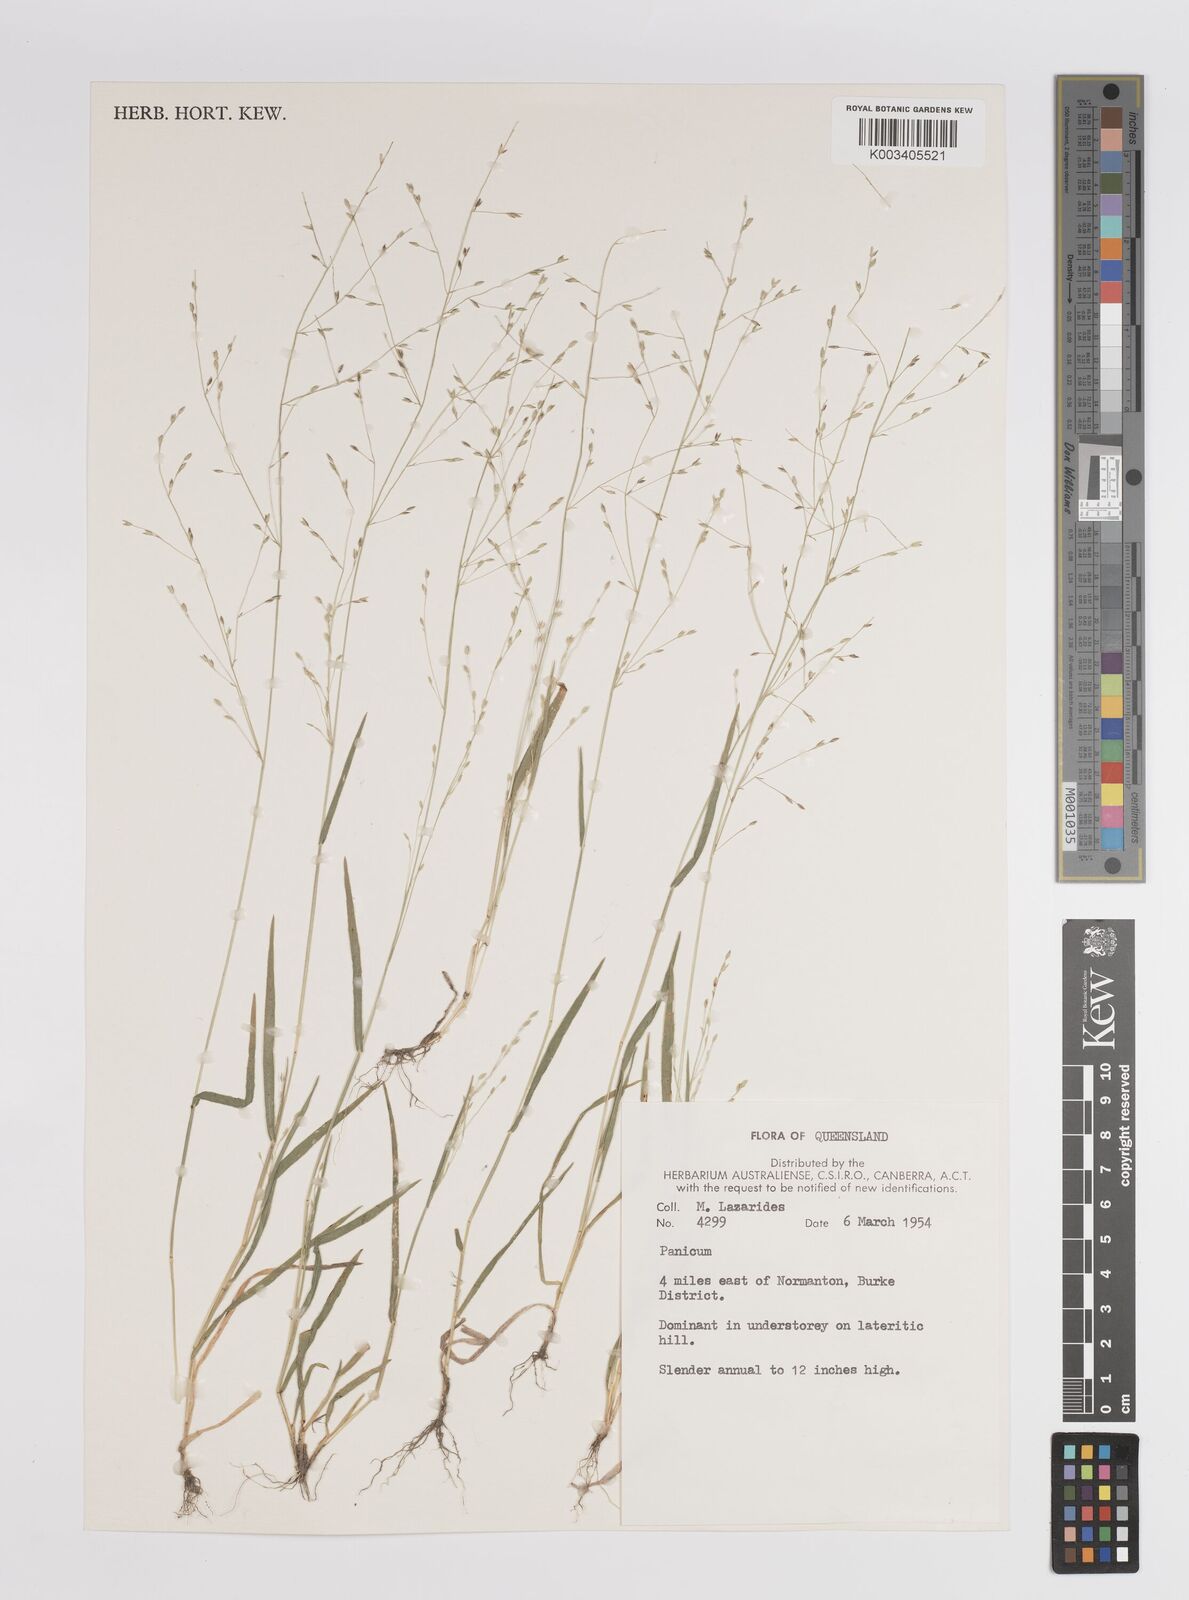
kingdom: Plantae
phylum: Tracheophyta
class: Liliopsida
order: Poales
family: Poaceae
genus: Panicum
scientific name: Panicum
